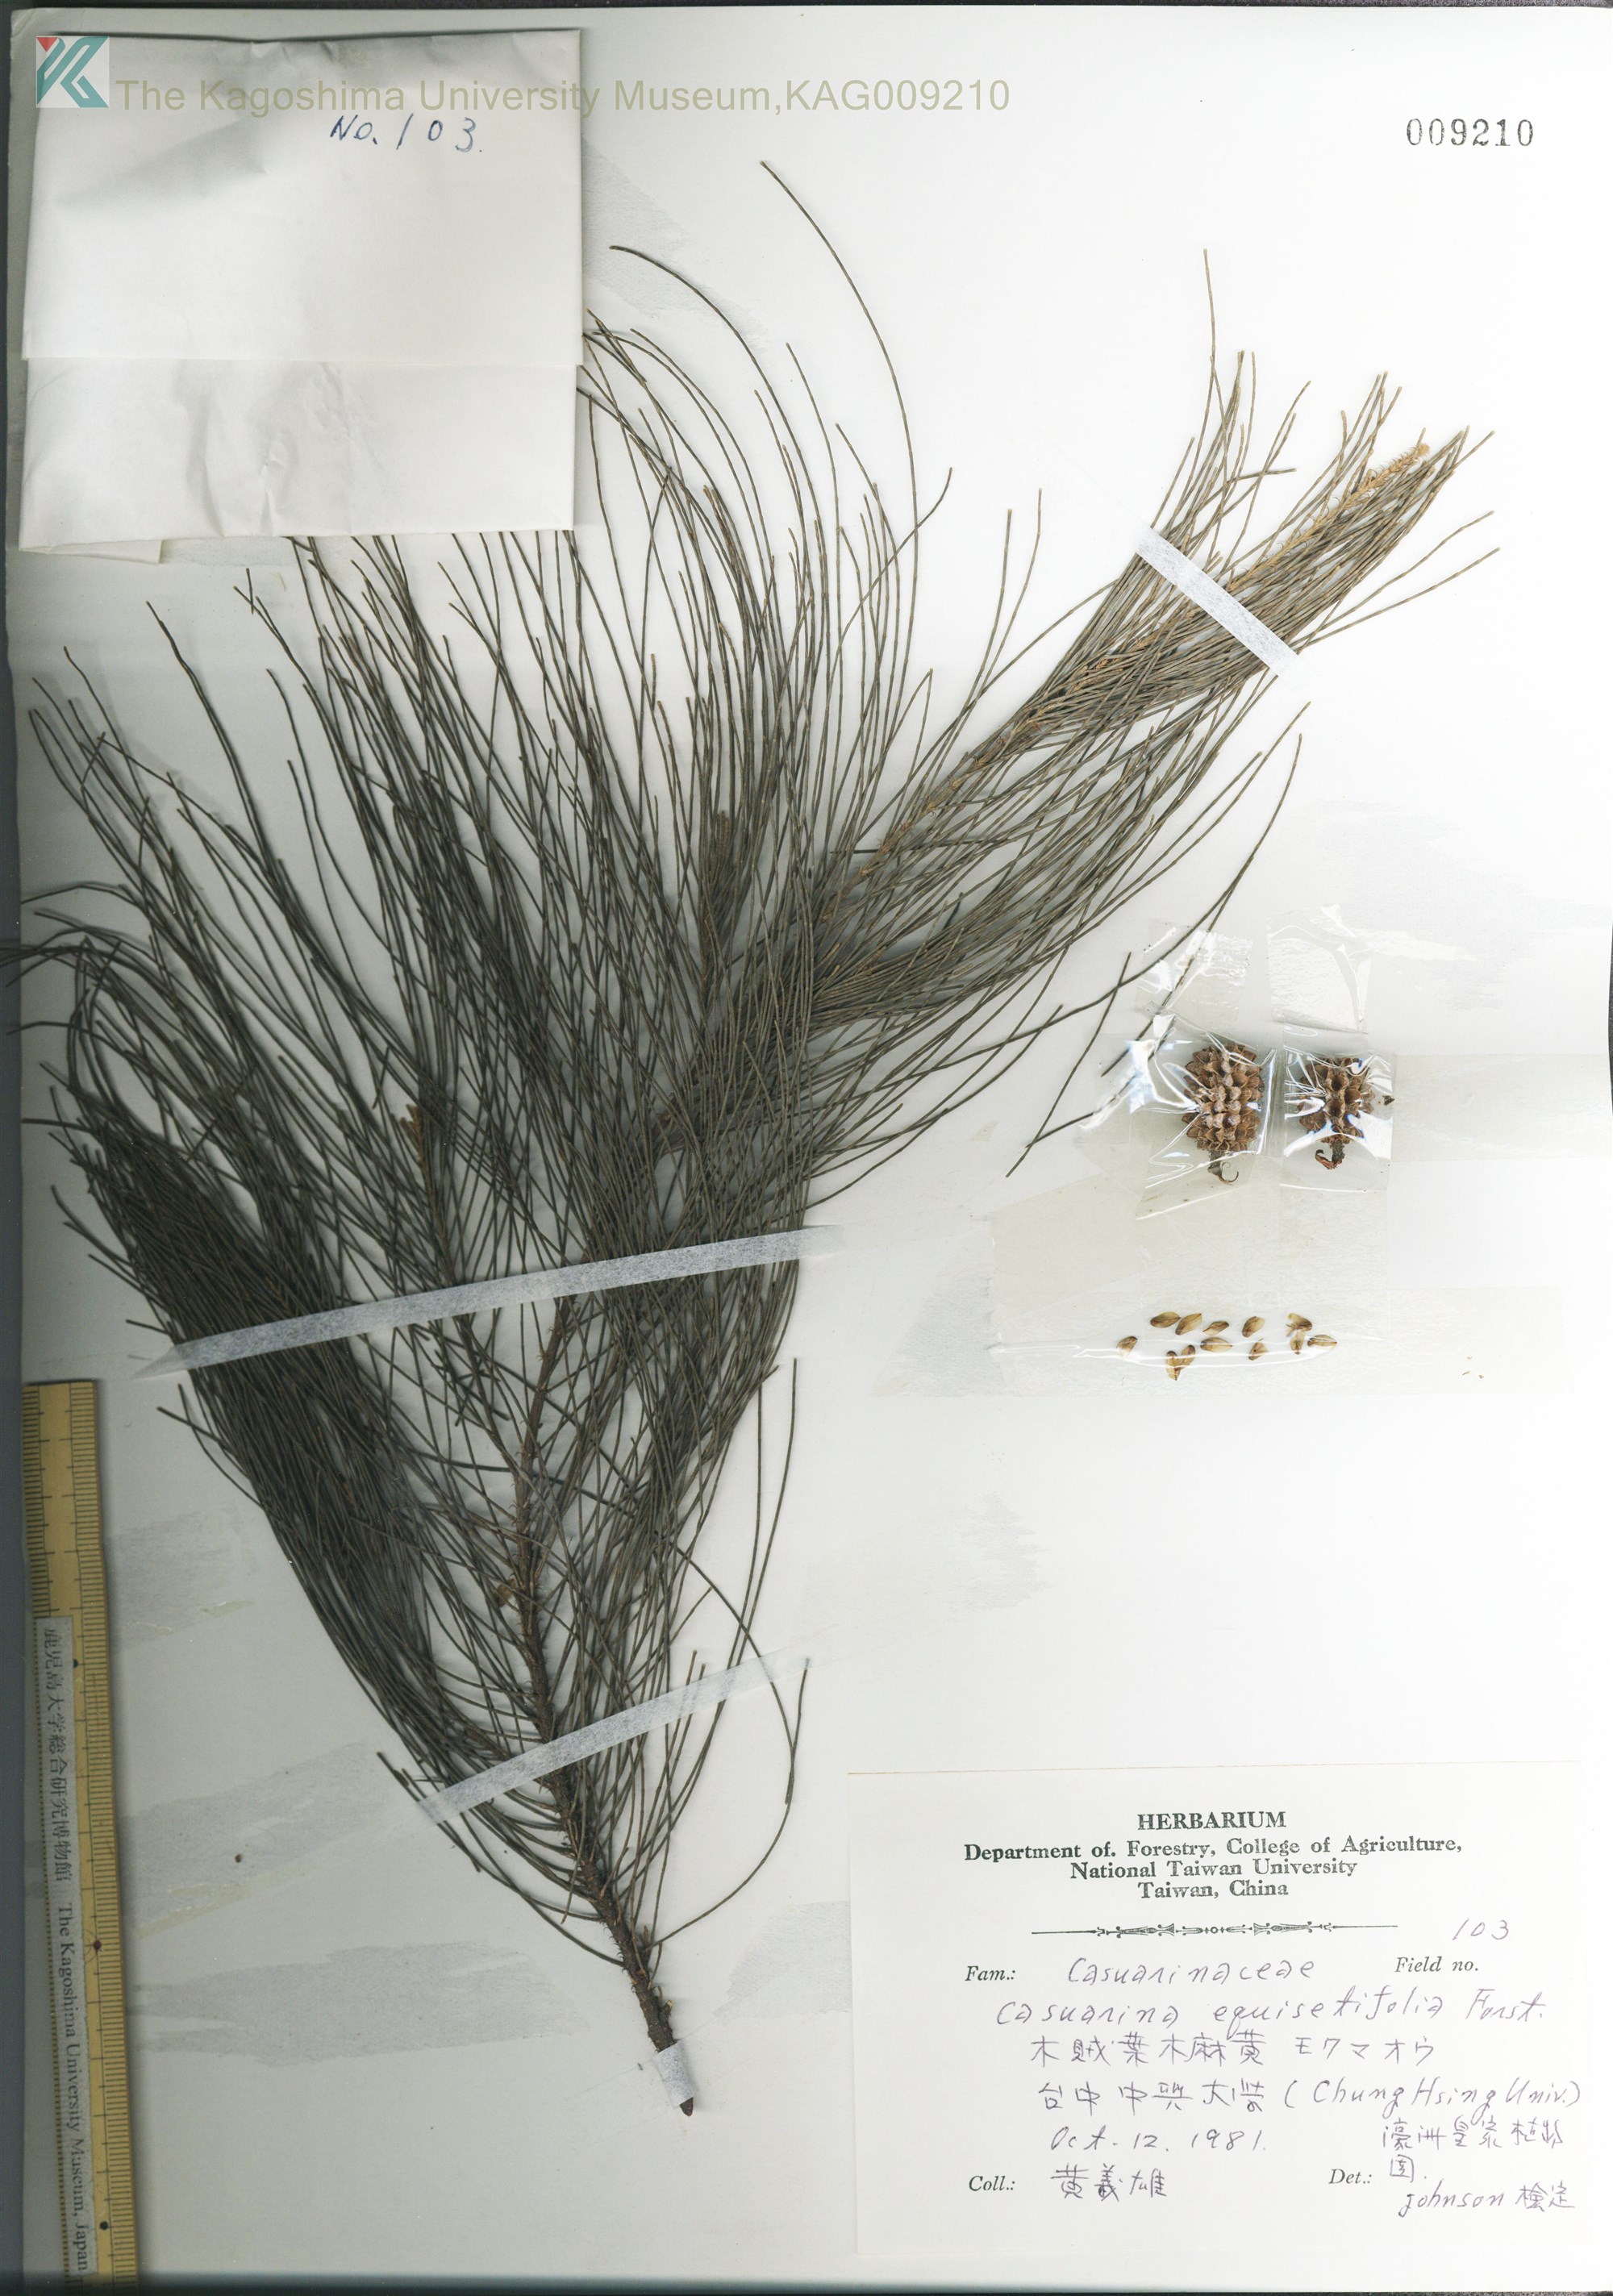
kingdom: Plantae
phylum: Tracheophyta
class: Magnoliopsida
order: Fagales
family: Casuarinaceae
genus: Casuarina
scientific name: Casuarina equisetifolia
